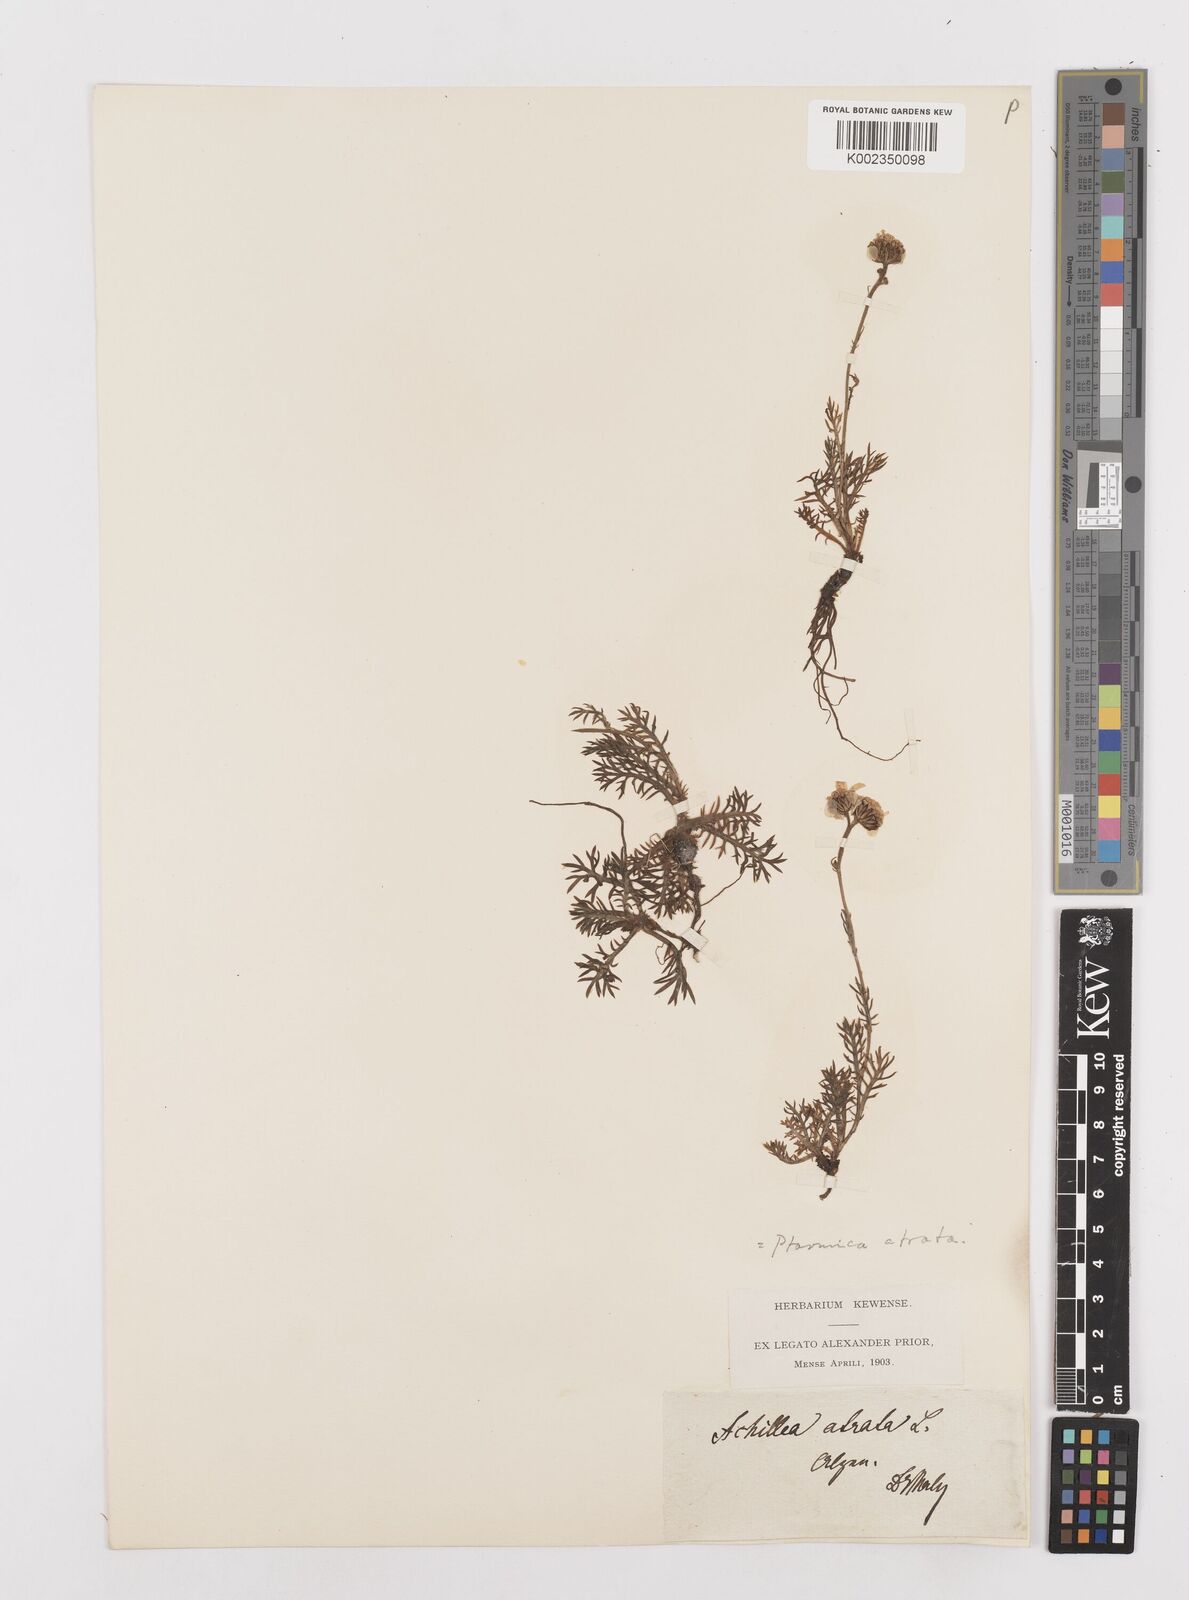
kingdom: Plantae
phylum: Tracheophyta
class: Magnoliopsida
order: Asterales
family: Asteraceae
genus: Achillea
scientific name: Achillea atrata
